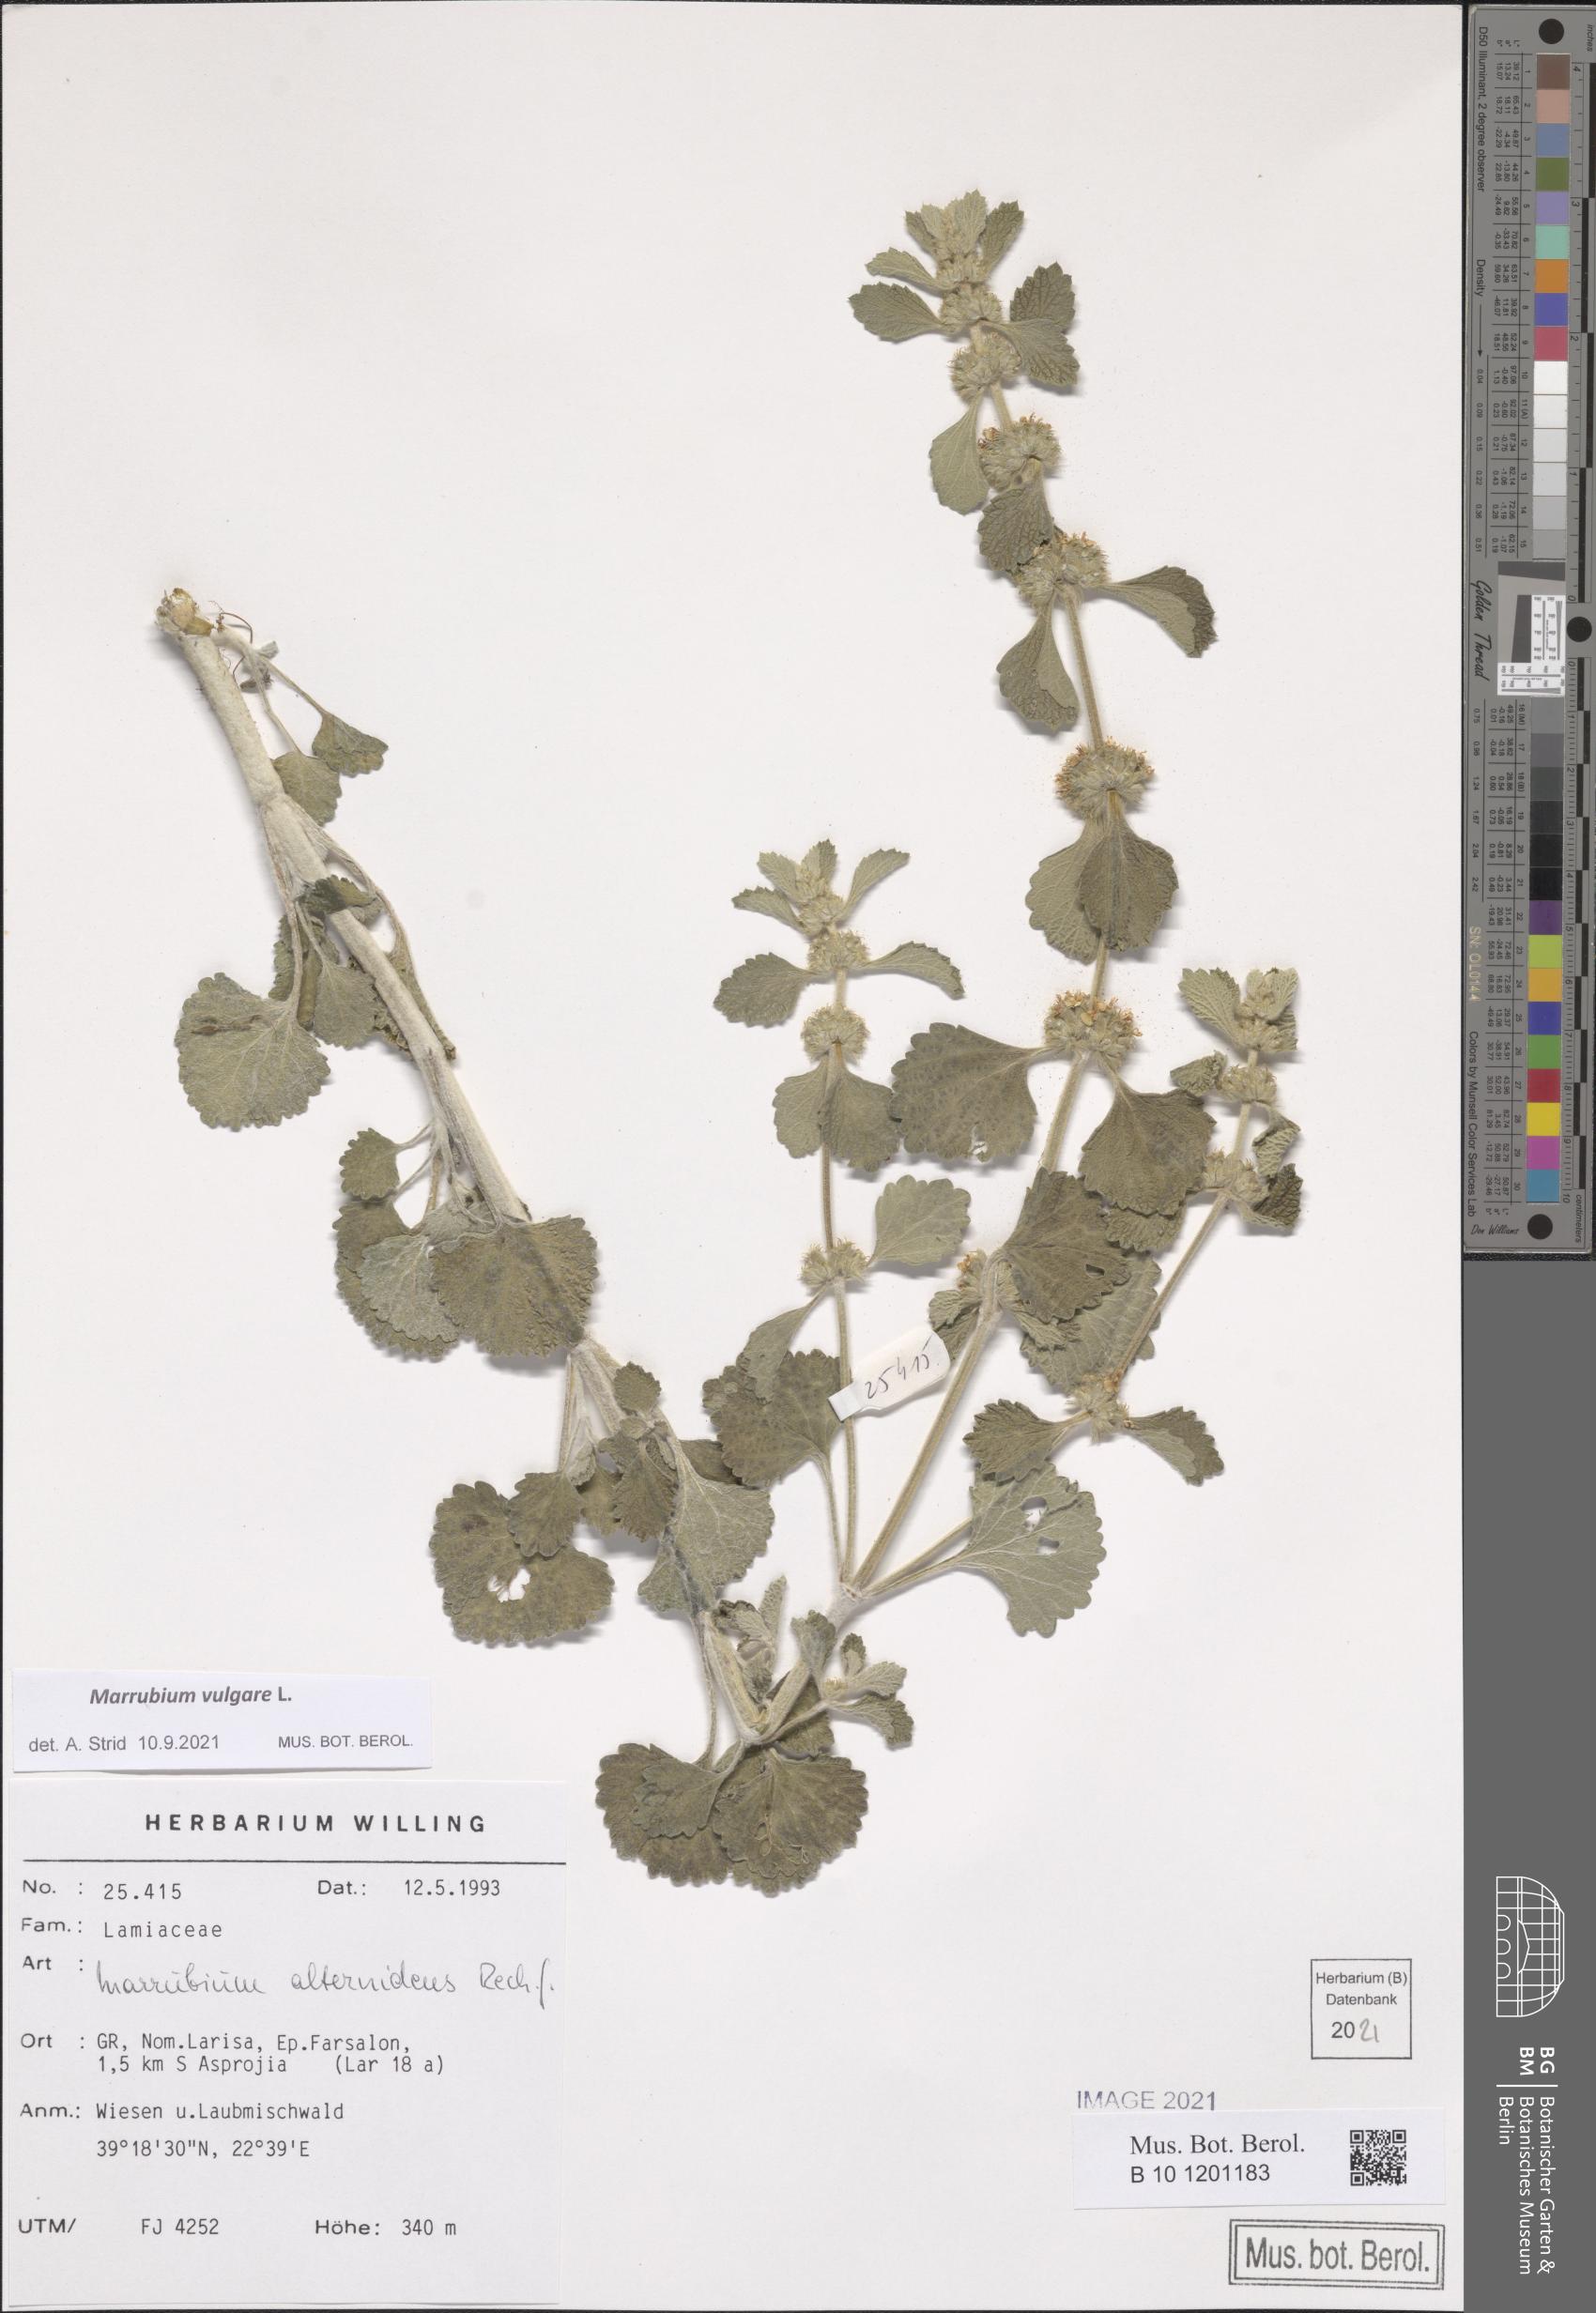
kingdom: Plantae
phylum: Tracheophyta
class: Magnoliopsida
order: Lamiales
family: Lamiaceae
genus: Marrubium
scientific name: Marrubium vulgare
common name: Horehound
